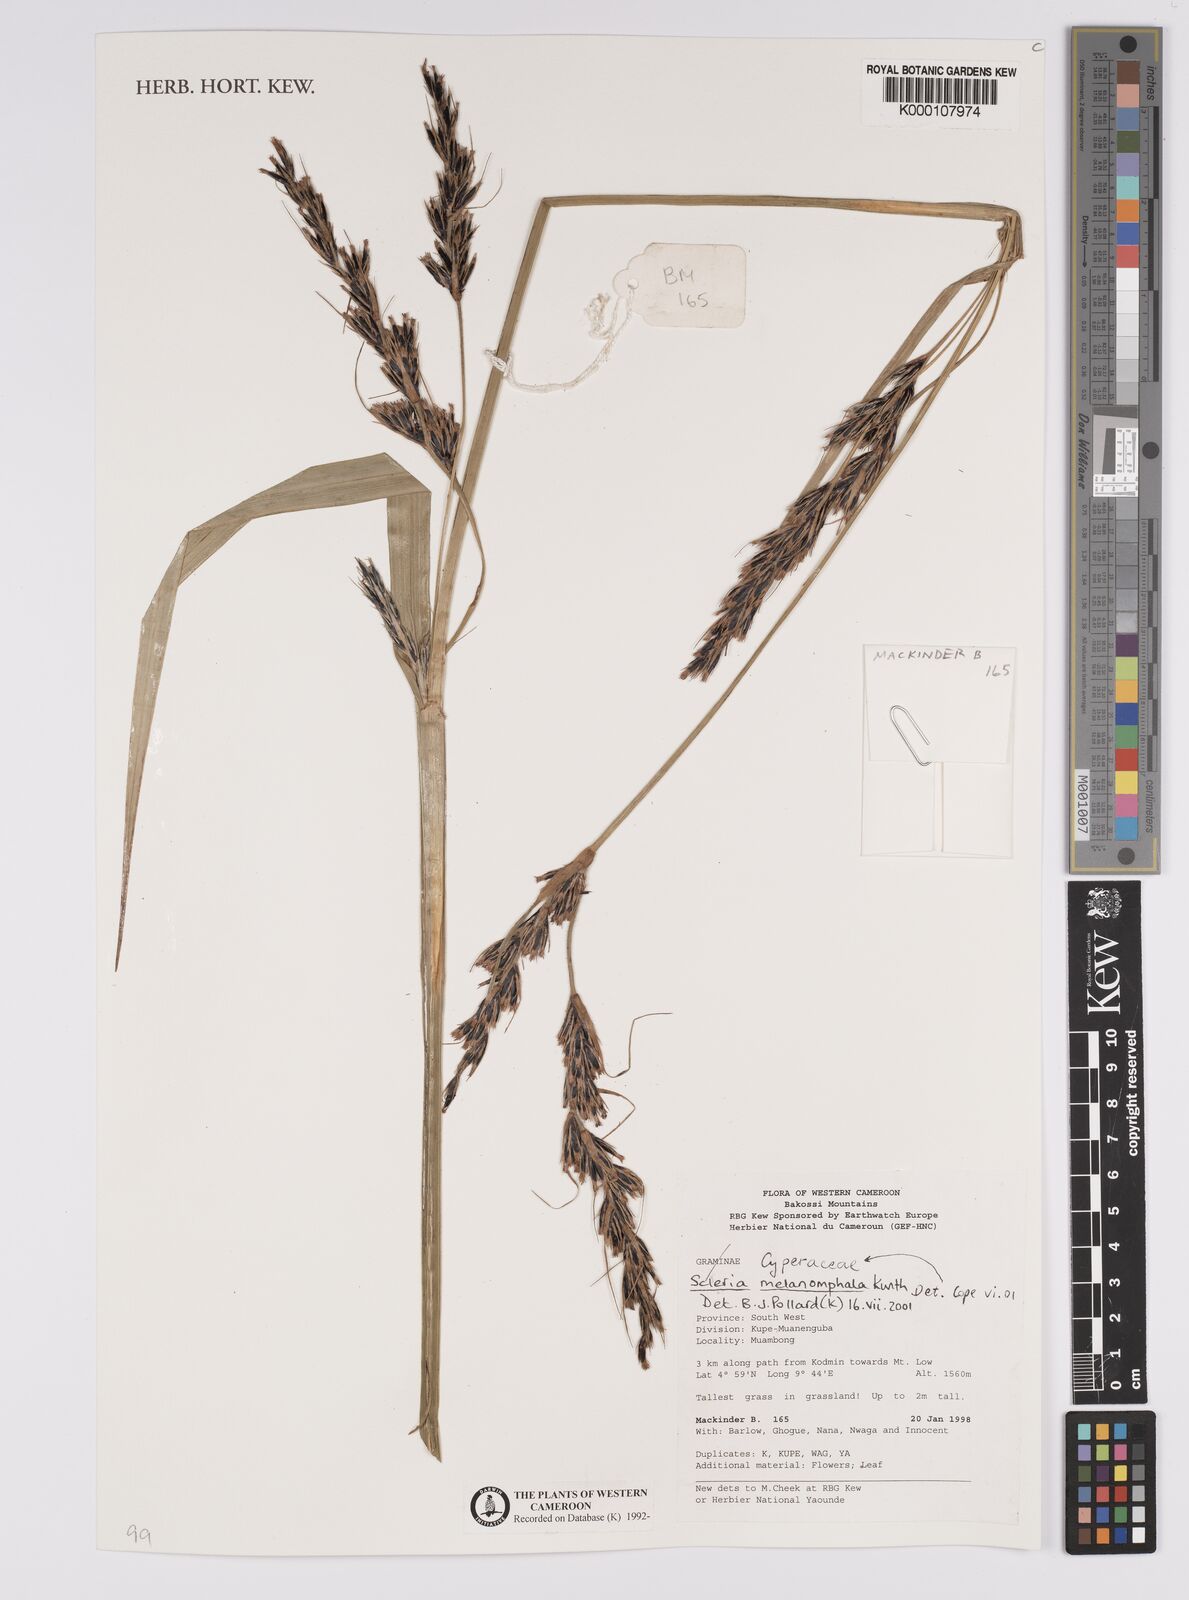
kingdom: Plantae
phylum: Tracheophyta
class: Liliopsida
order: Poales
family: Cyperaceae
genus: Scleria
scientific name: Scleria melanomphala
